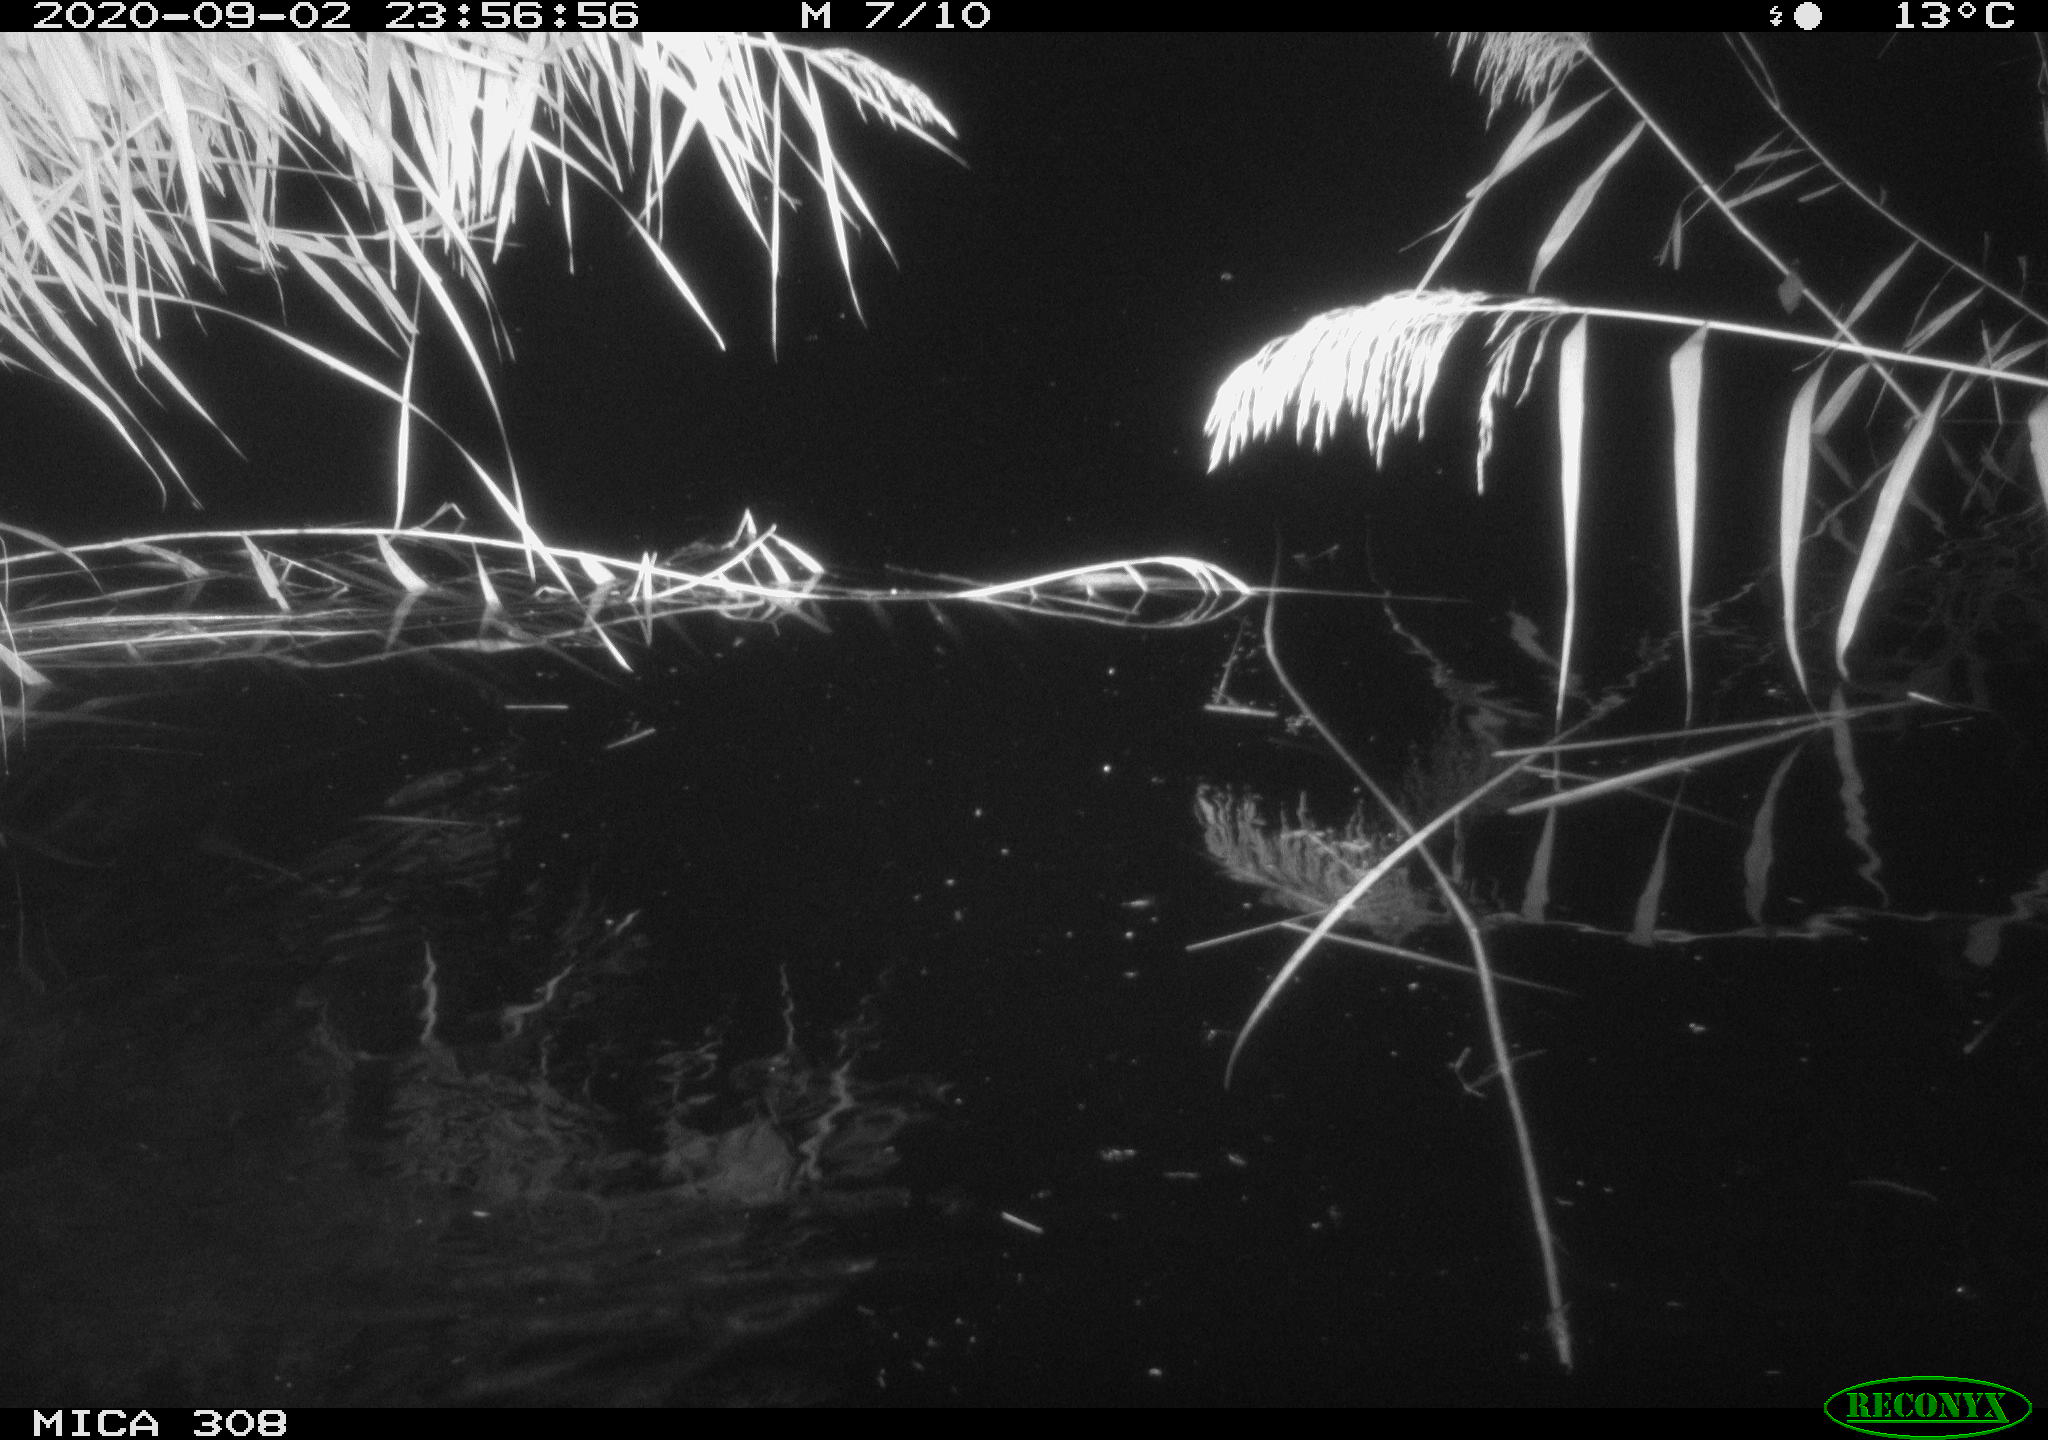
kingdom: Animalia
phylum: Chordata
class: Mammalia
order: Rodentia
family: Muridae
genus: Rattus
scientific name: Rattus norvegicus
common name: Brown rat
